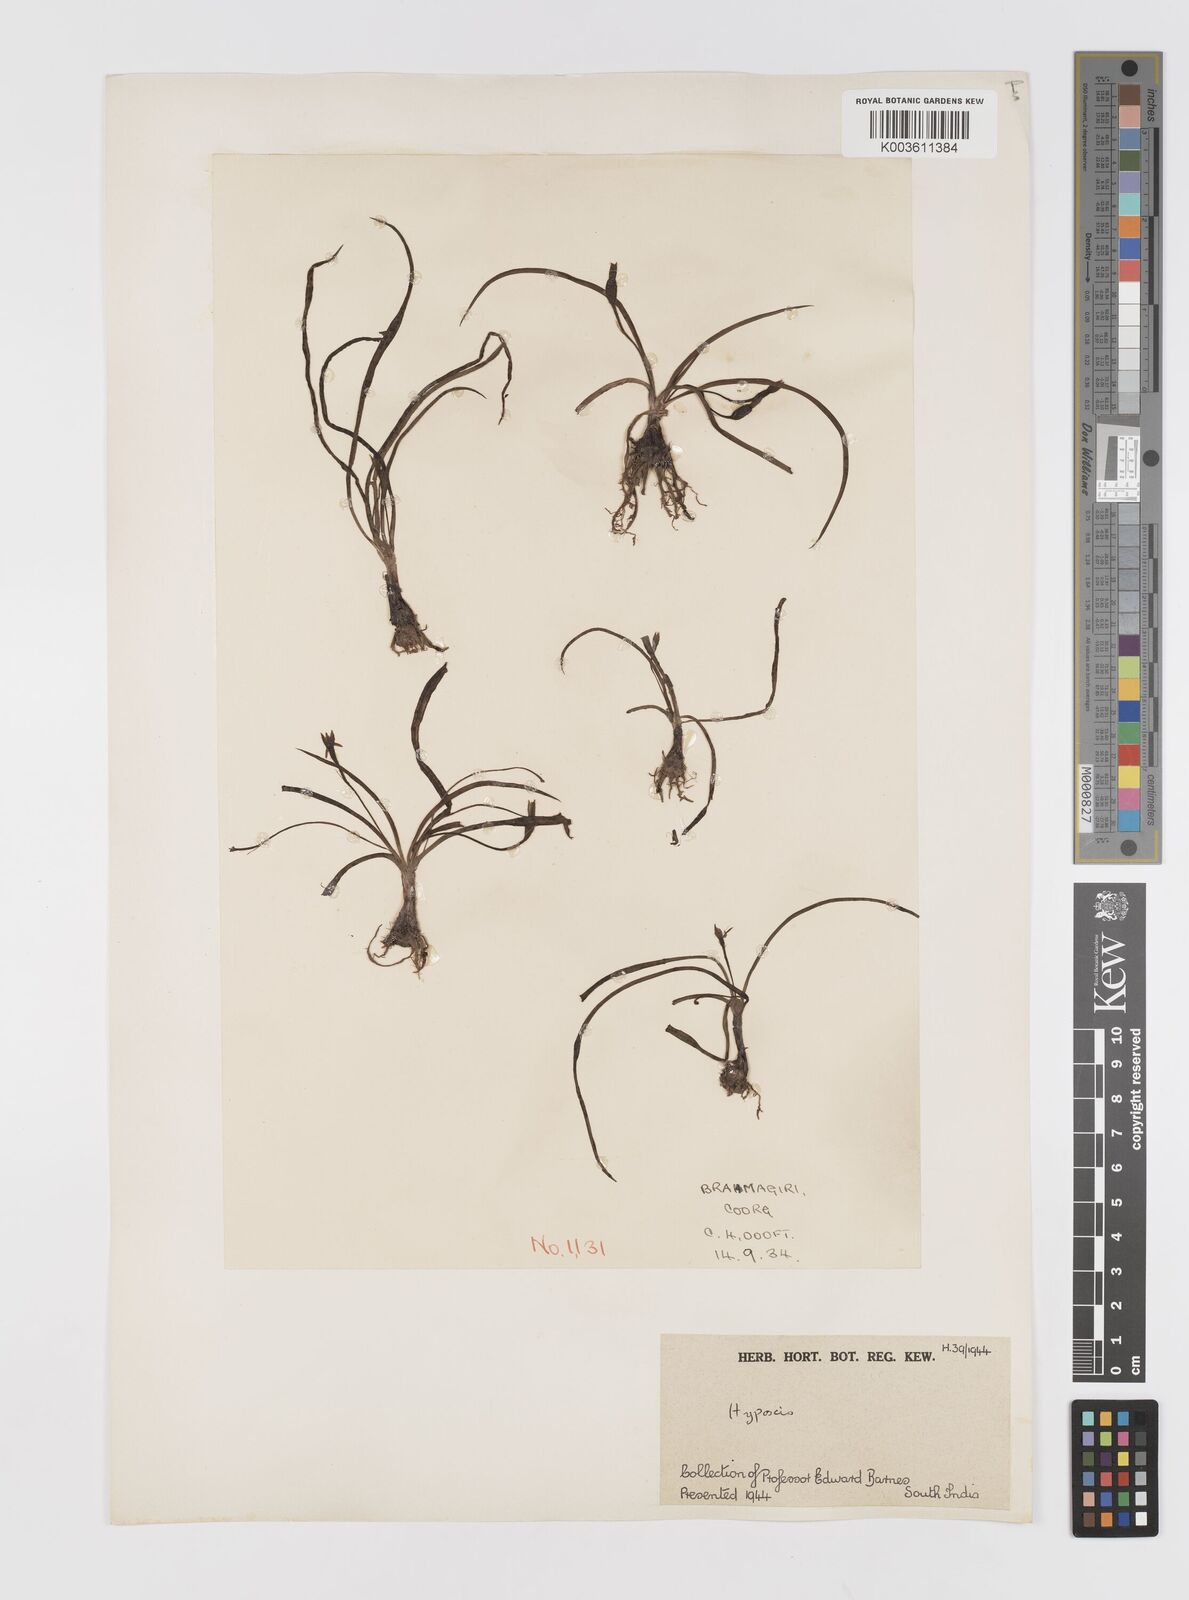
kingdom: Plantae
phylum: Tracheophyta
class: Liliopsida
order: Asparagales
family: Hypoxidaceae
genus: Hypoxis
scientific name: Hypoxis aurea
